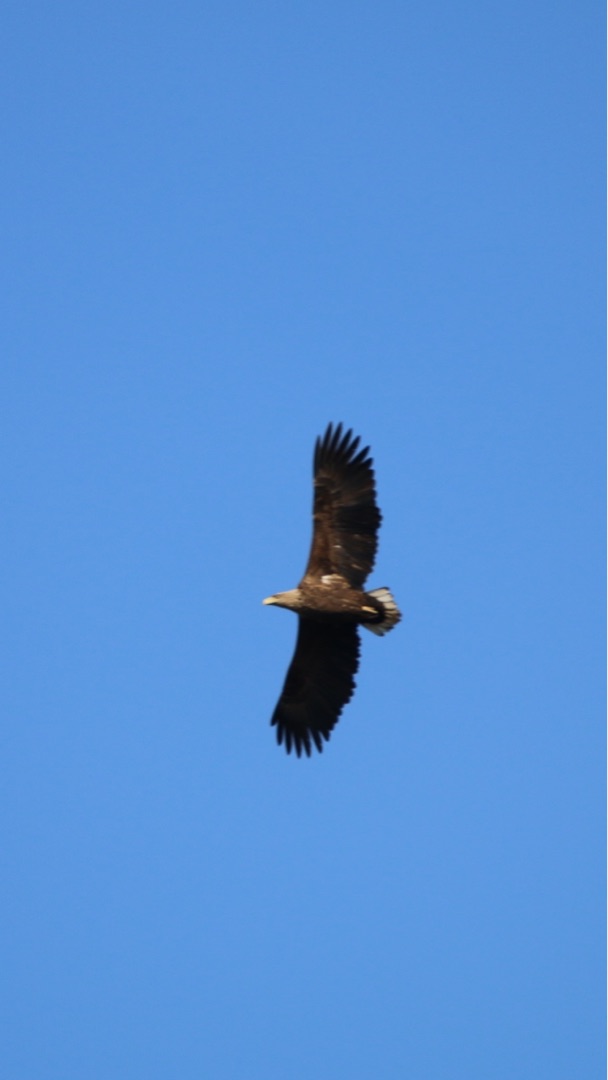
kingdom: Animalia
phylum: Chordata
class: Aves
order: Accipitriformes
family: Accipitridae
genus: Haliaeetus
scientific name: Haliaeetus albicilla
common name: Havørn
